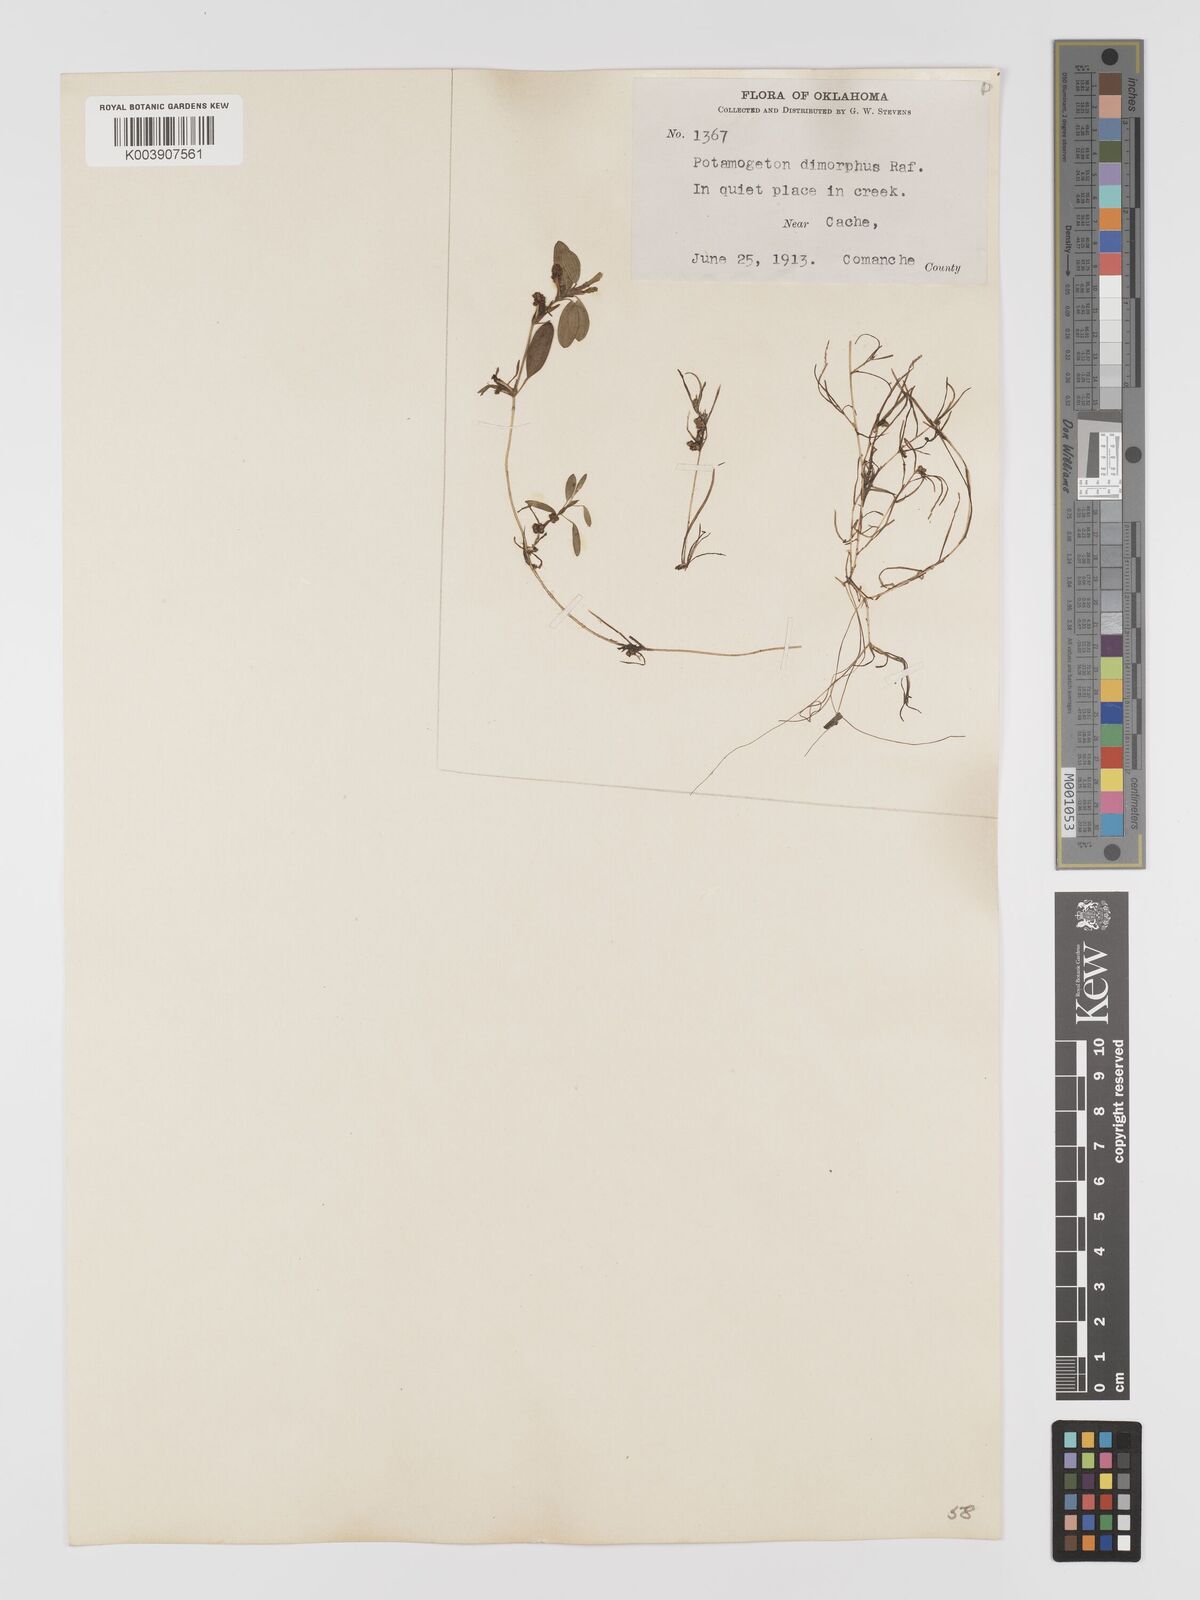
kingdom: Plantae
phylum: Tracheophyta
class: Liliopsida
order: Alismatales
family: Potamogetonaceae
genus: Potamogeton
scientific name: Potamogeton bicupulatus
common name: Snail-seed pondweed
